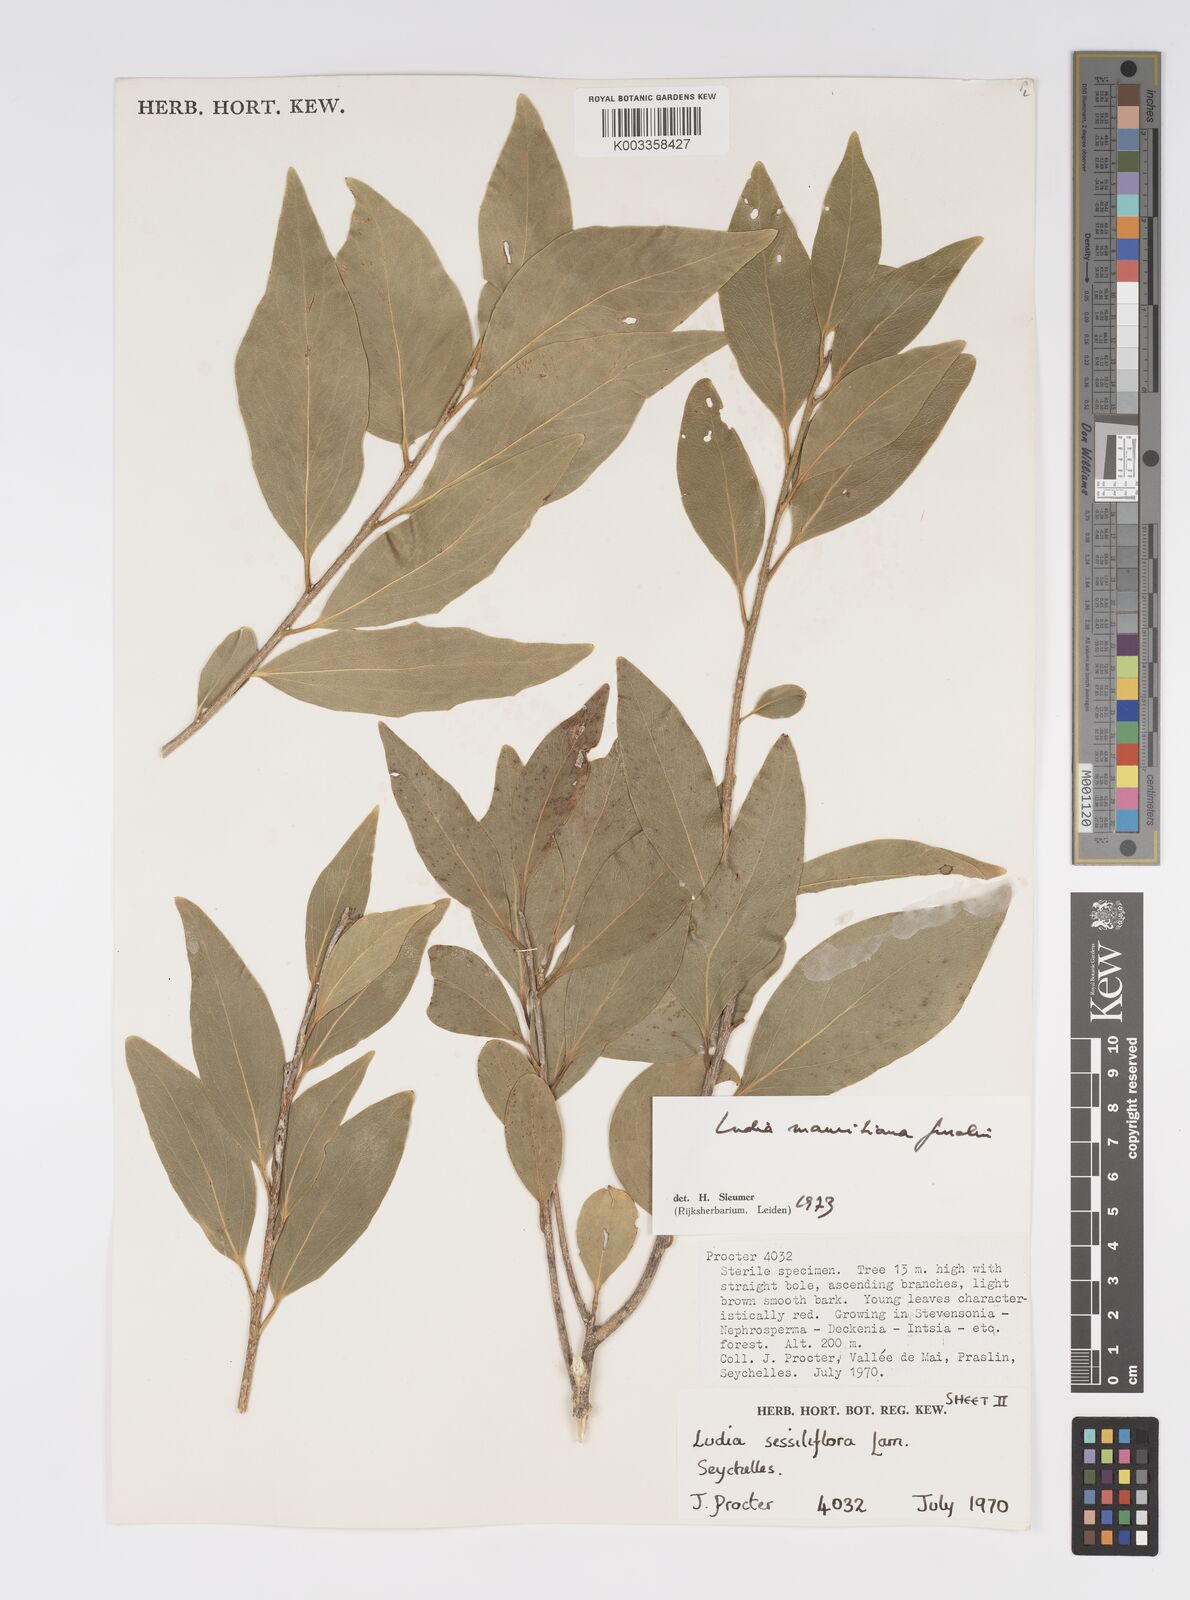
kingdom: Plantae
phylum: Tracheophyta
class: Magnoliopsida
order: Malpighiales
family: Salicaceae
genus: Ludia
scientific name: Ludia mauritiana
